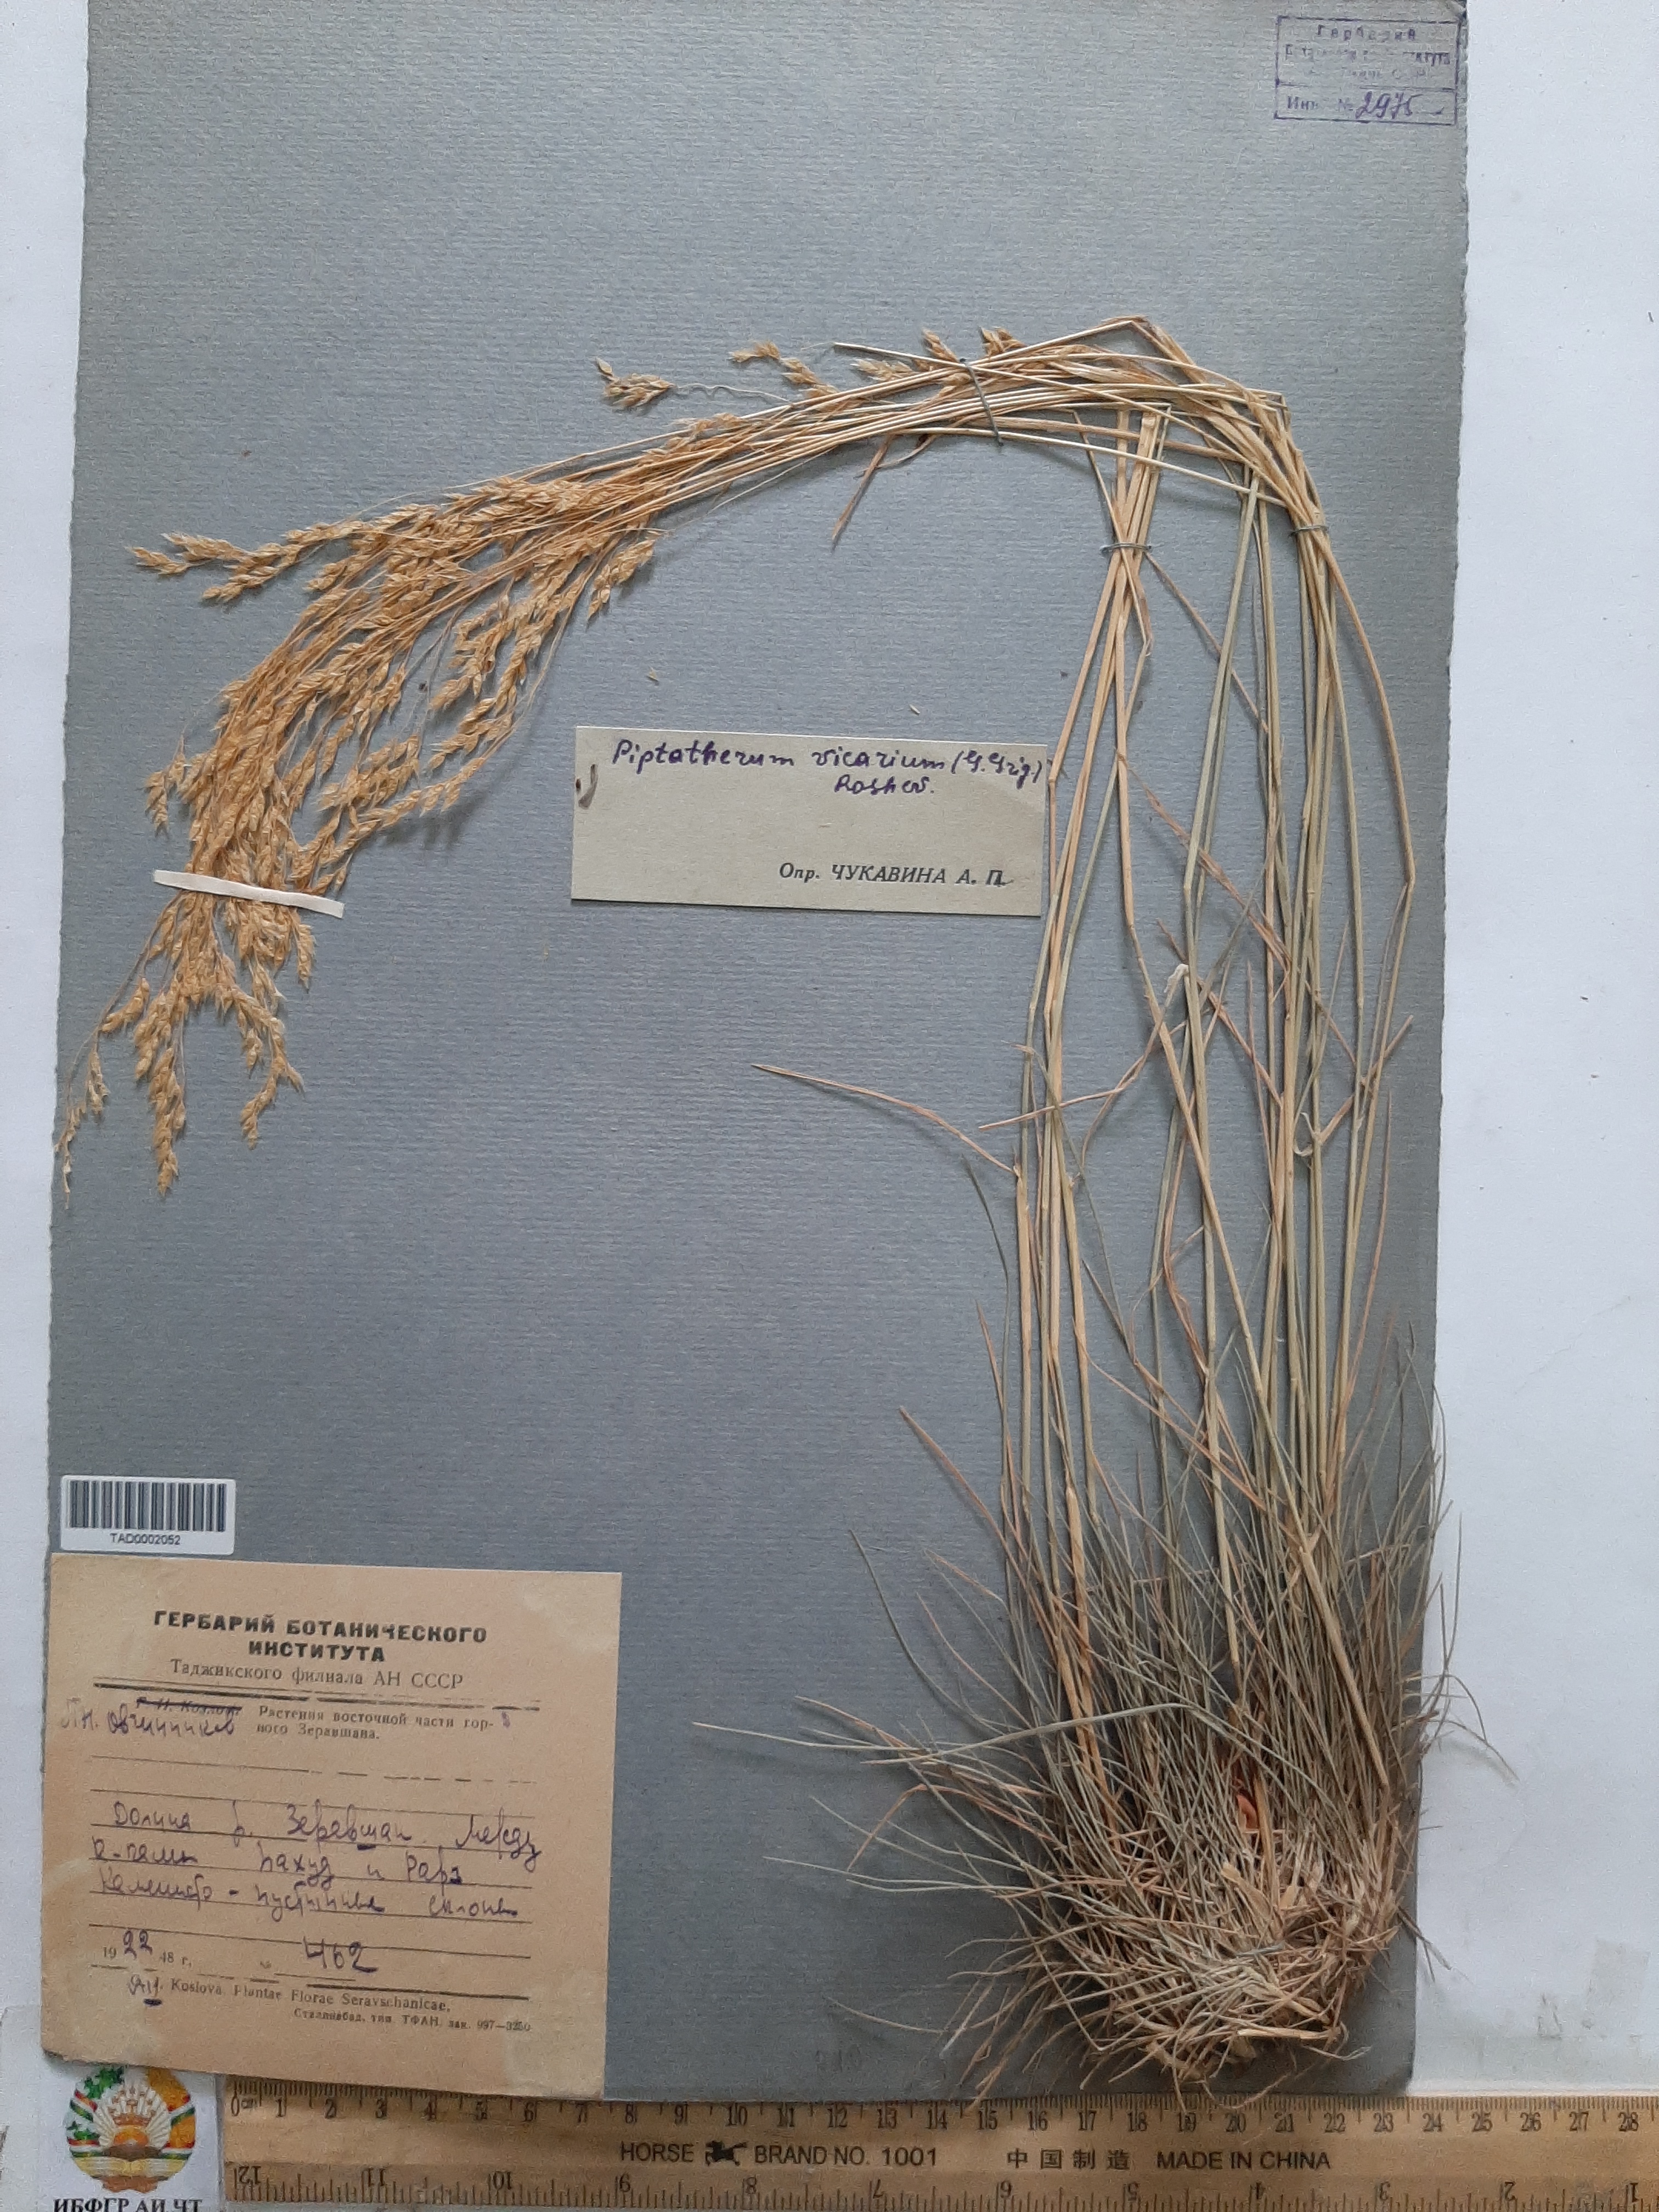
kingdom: Plantae
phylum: Tracheophyta
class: Liliopsida
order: Poales
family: Poaceae
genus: Piptatherum
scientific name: Piptatherum sogdianum
